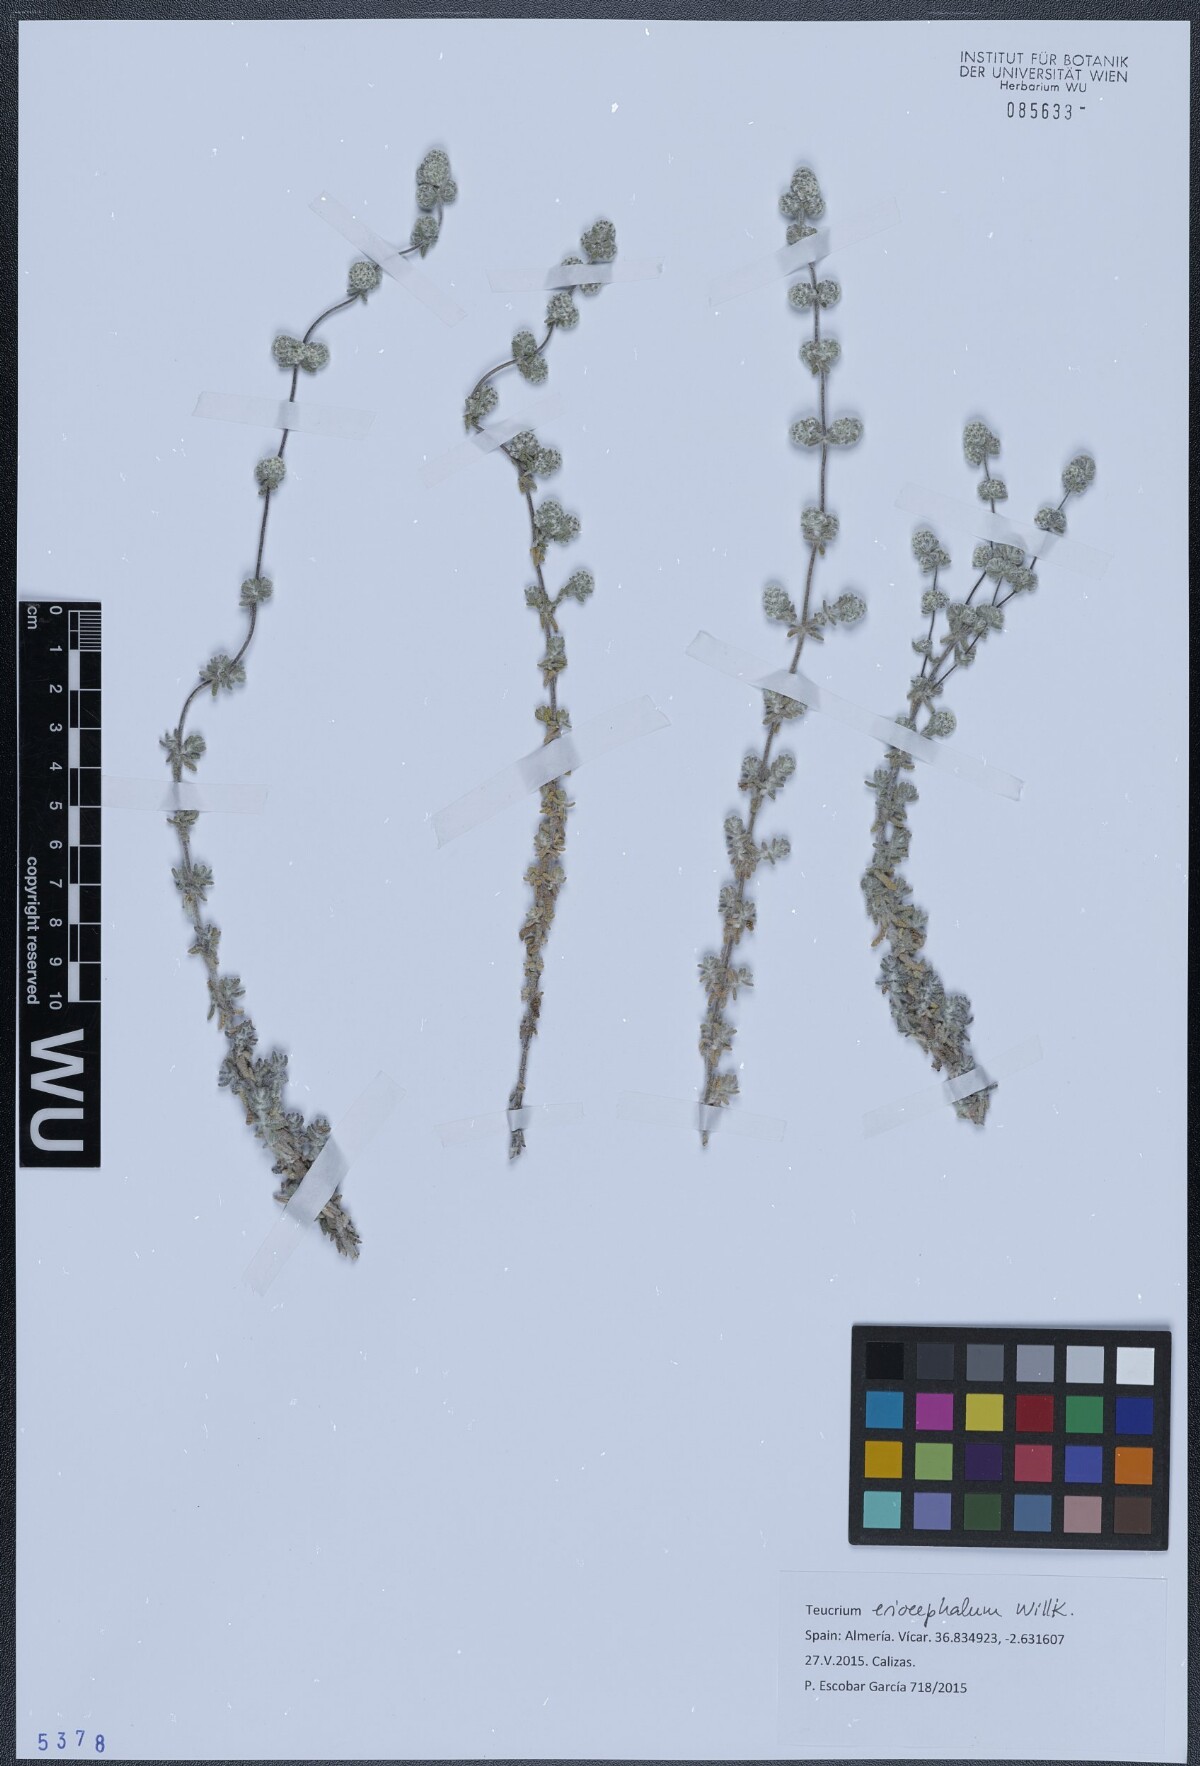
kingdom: Plantae
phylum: Tracheophyta
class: Magnoliopsida
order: Lamiales
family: Lamiaceae
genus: Teucrium
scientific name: Teucrium eriocephalum
